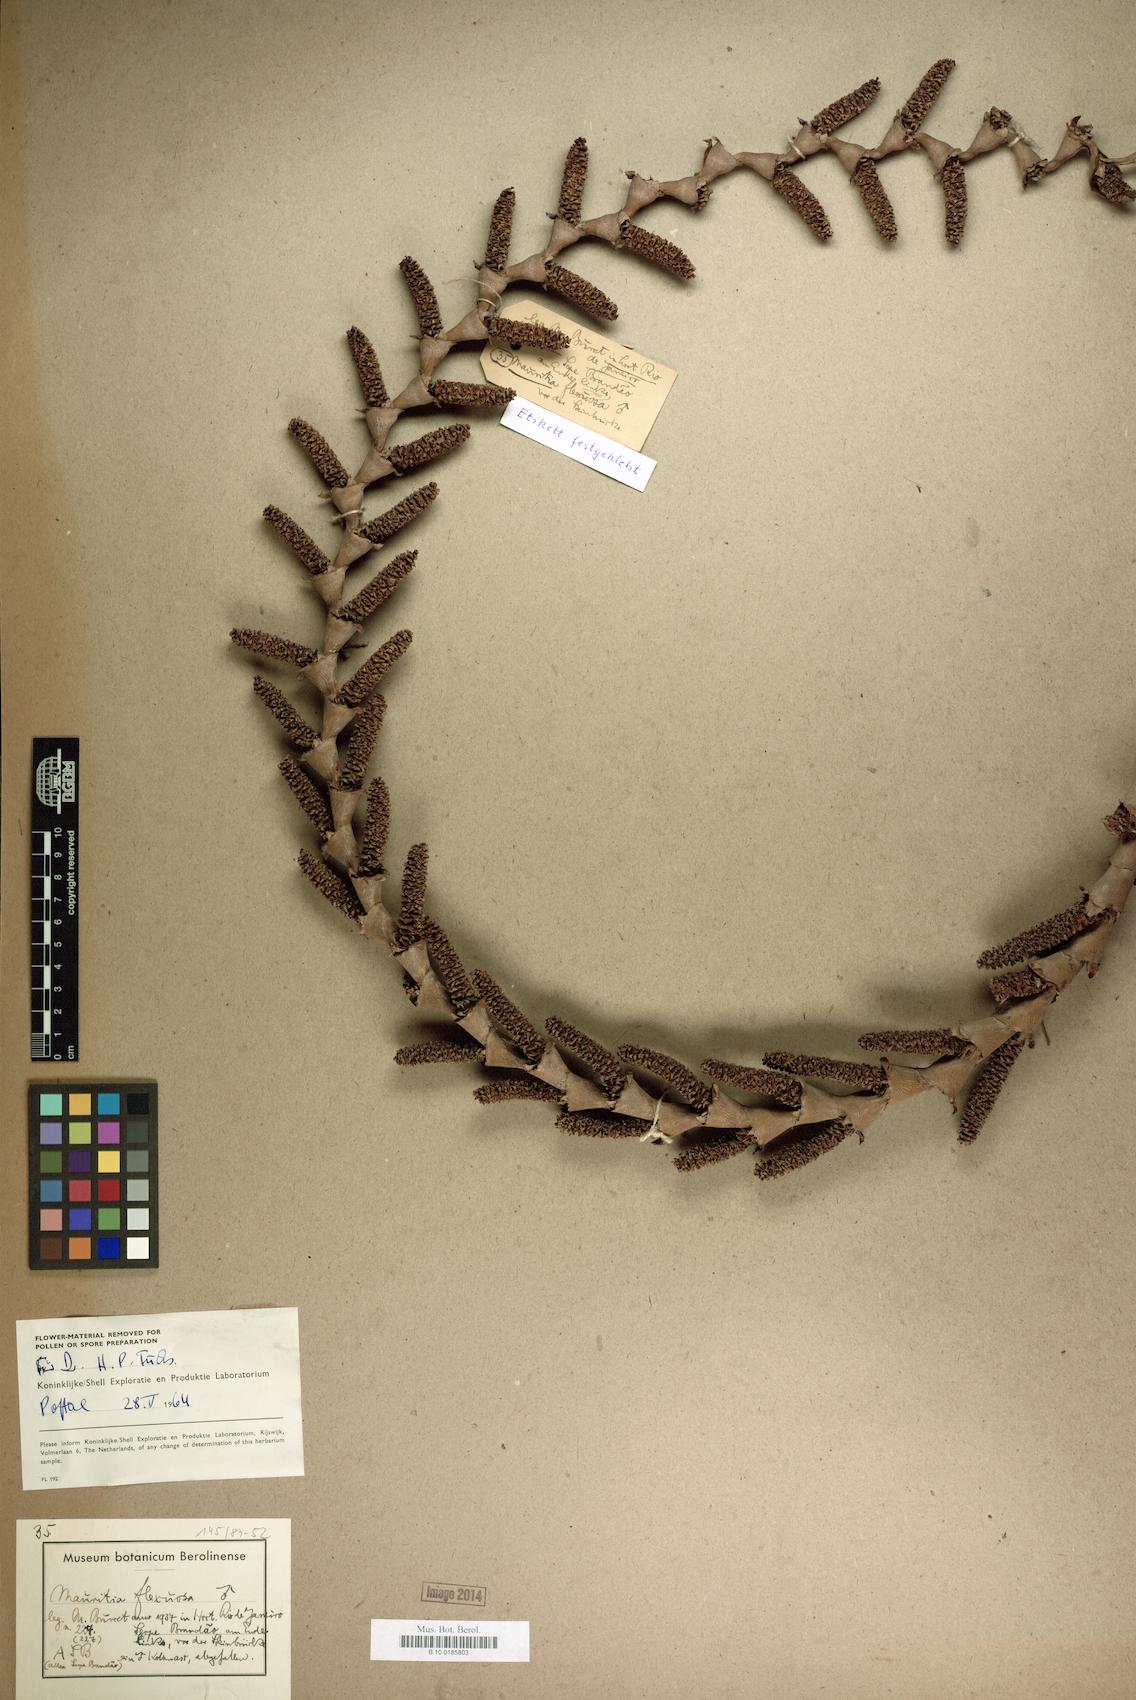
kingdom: Plantae
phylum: Tracheophyta
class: Liliopsida
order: Arecales
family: Arecaceae
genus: Mauritia
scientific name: Mauritia flexuosa
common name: Tree-of-life
